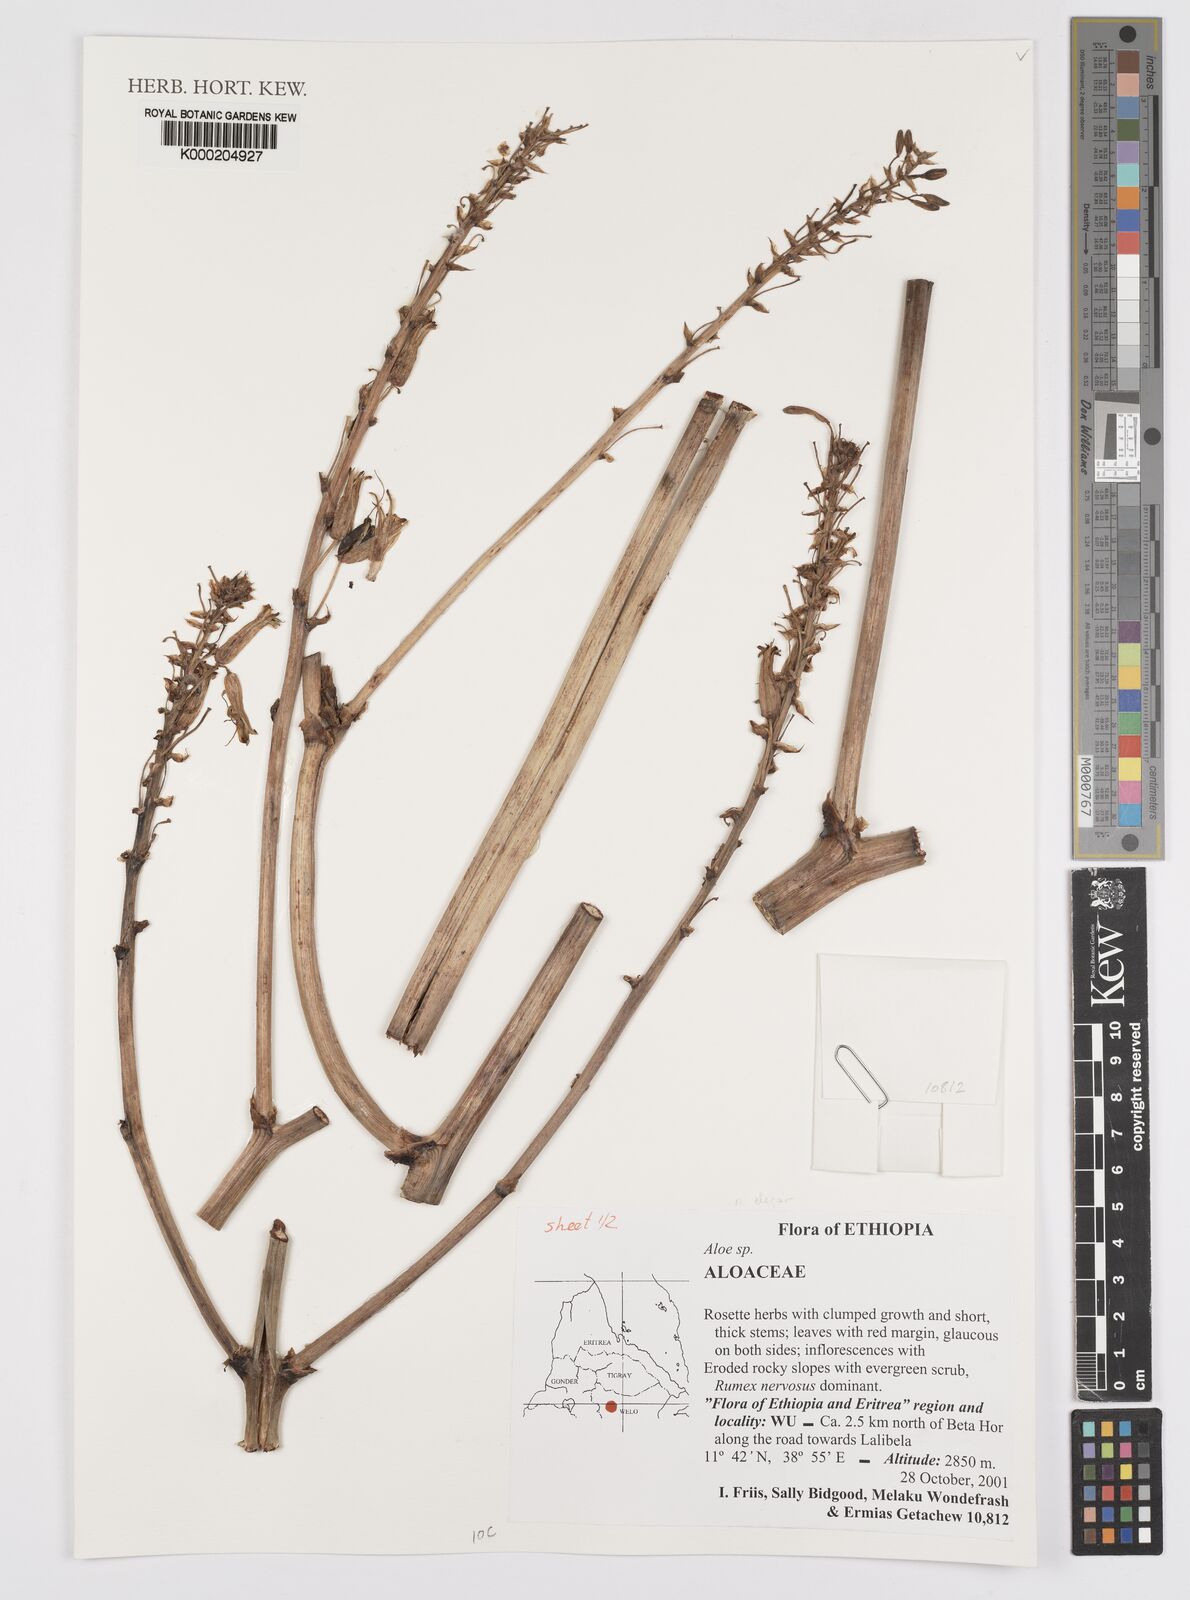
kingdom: Plantae
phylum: Tracheophyta
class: Liliopsida
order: Asparagales
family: Asphodelaceae
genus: Aloe
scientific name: Aloe
